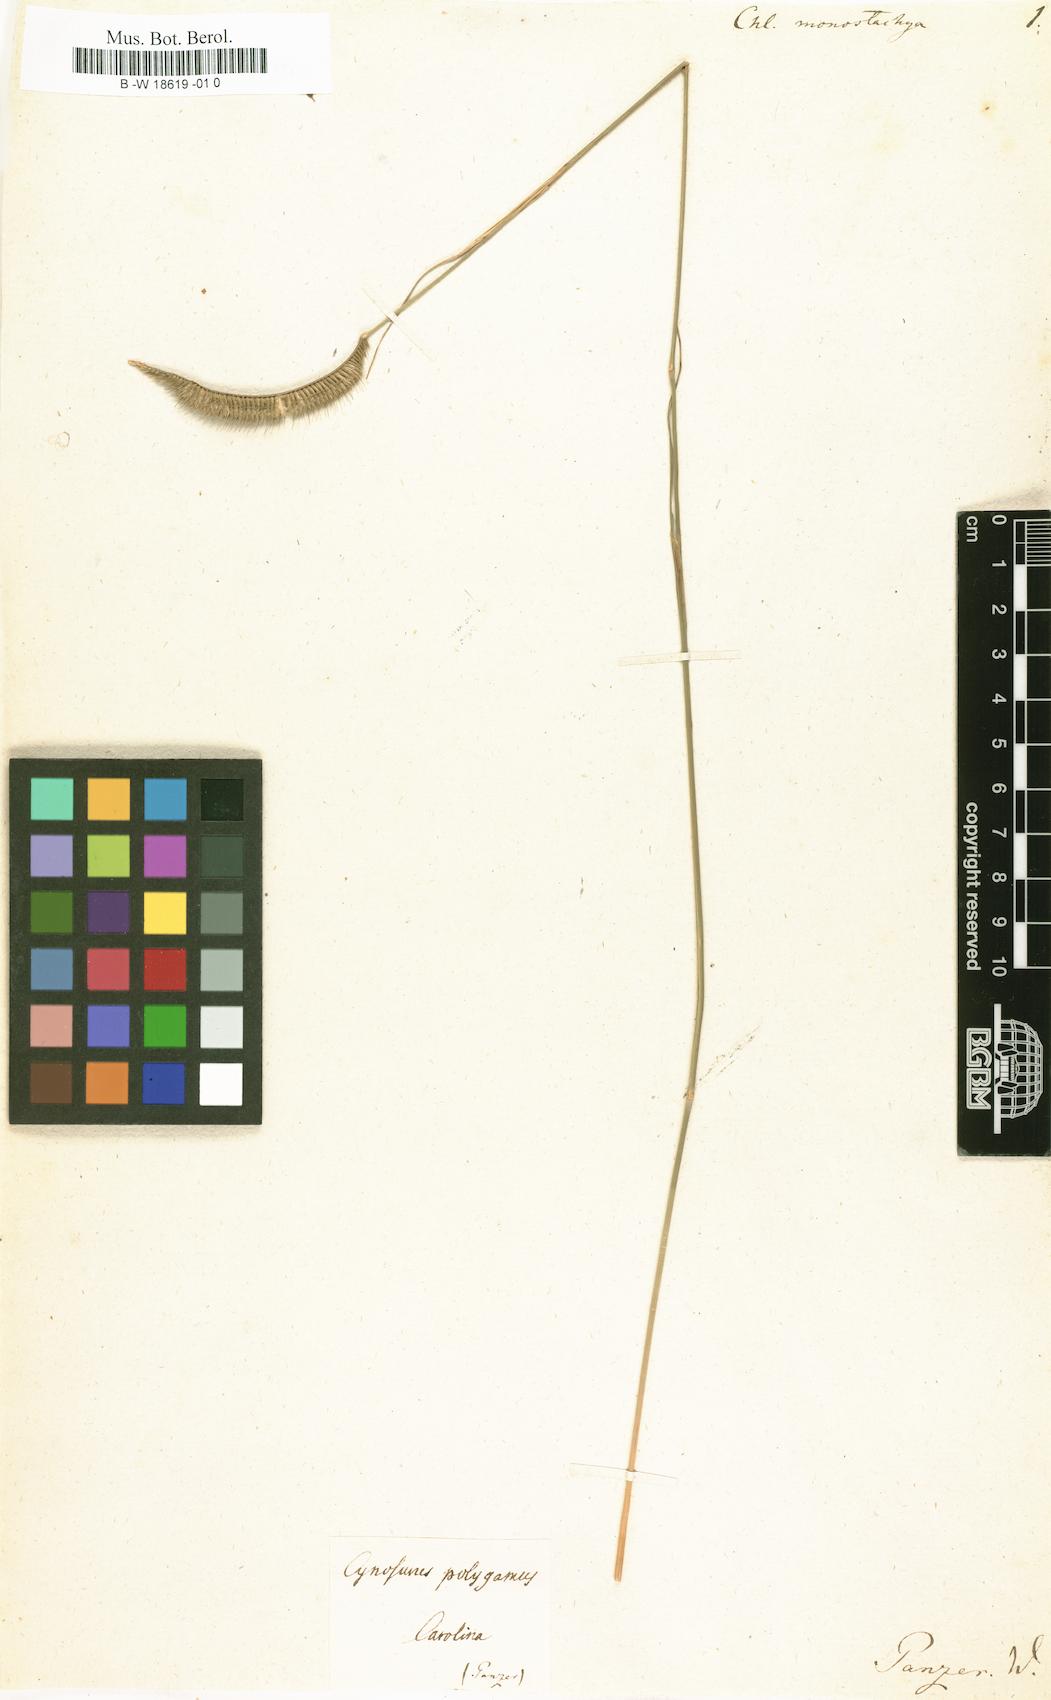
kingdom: Plantae
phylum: Tracheophyta
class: Liliopsida
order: Poales
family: Poaceae
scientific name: Poaceae
